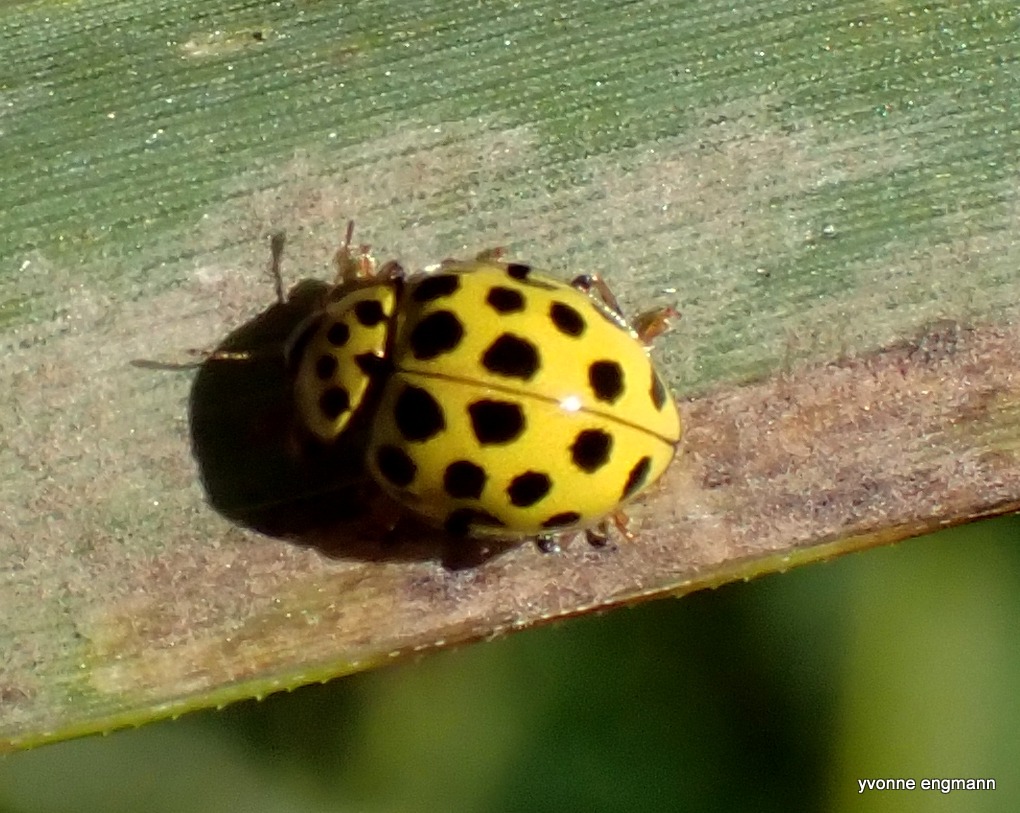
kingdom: Animalia
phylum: Arthropoda
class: Insecta
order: Coleoptera
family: Coccinellidae
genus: Psyllobora
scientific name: Psyllobora vigintiduopunctata
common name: Toogtyveplettet mariehøne
